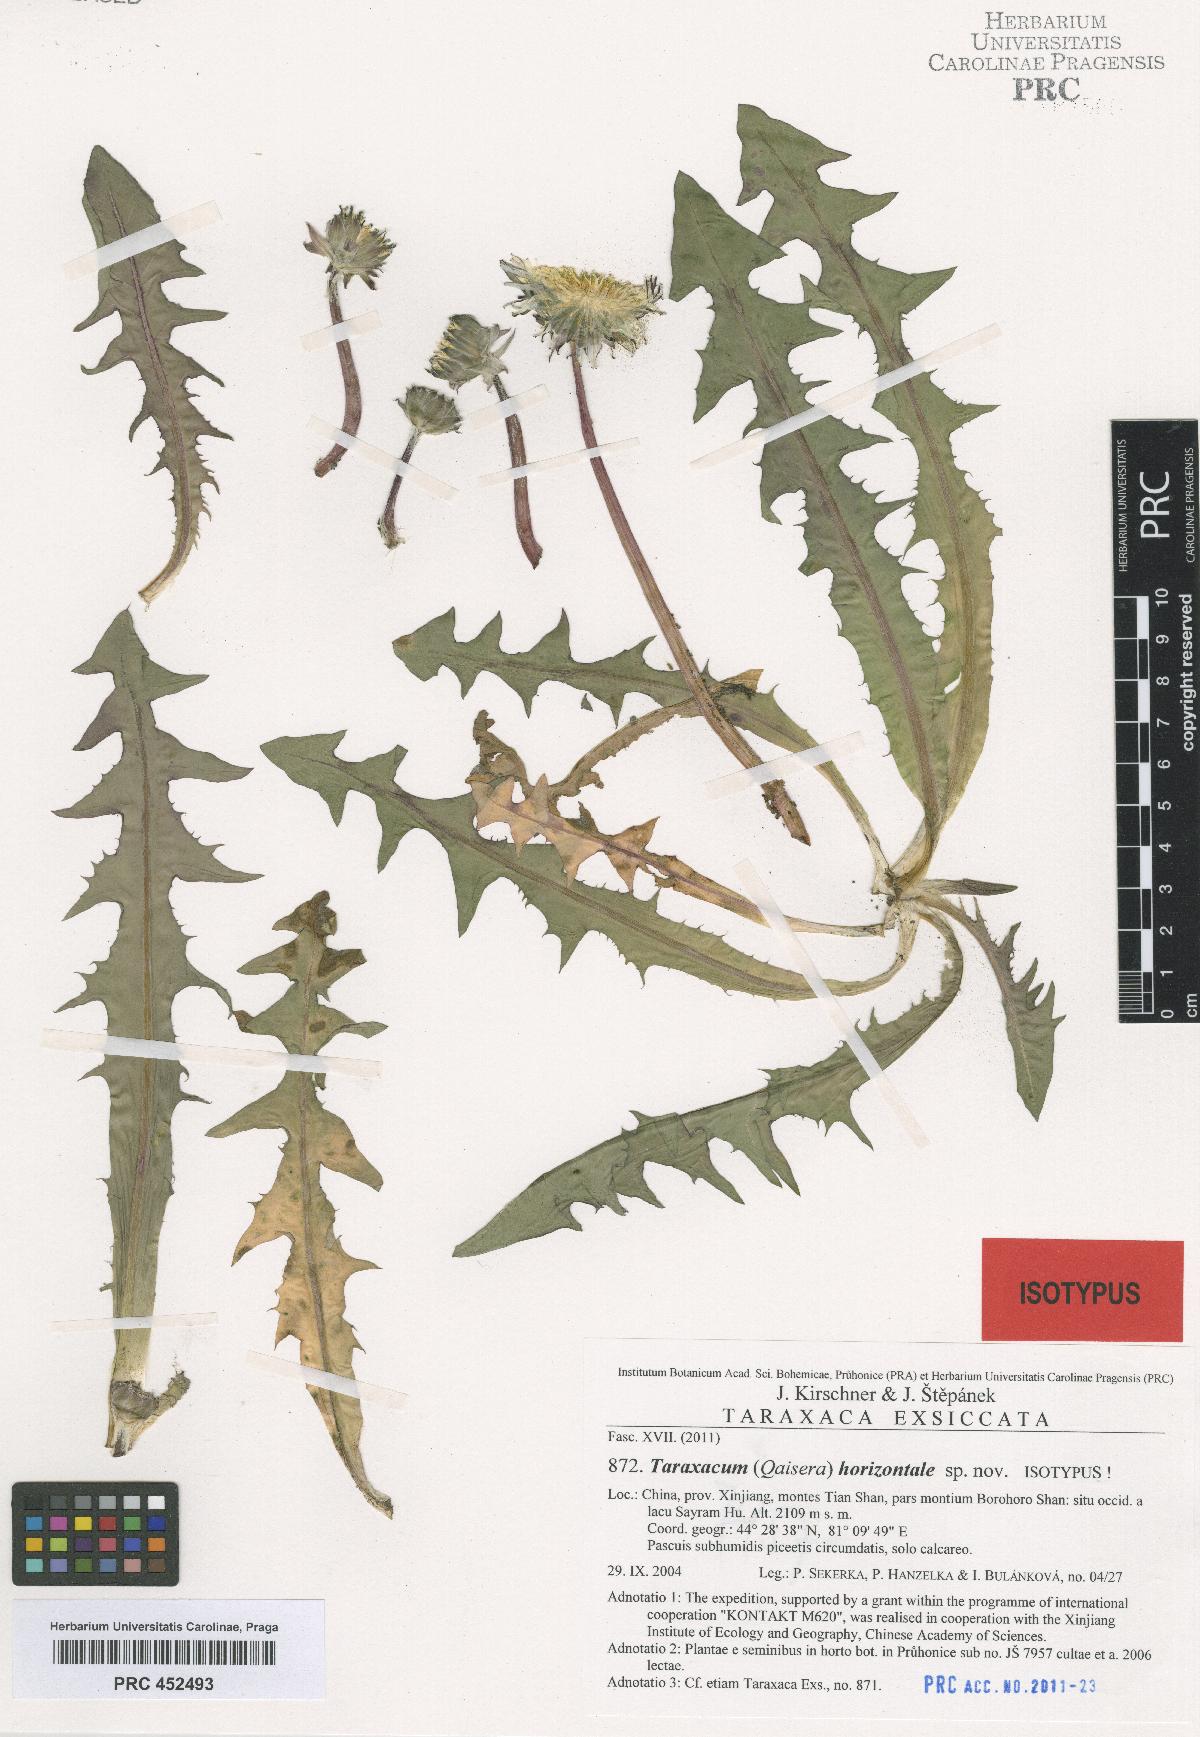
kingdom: Plantae
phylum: Tracheophyta
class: Magnoliopsida
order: Asterales
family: Asteraceae
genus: Taraxacum
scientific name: Taraxacum horizontale
